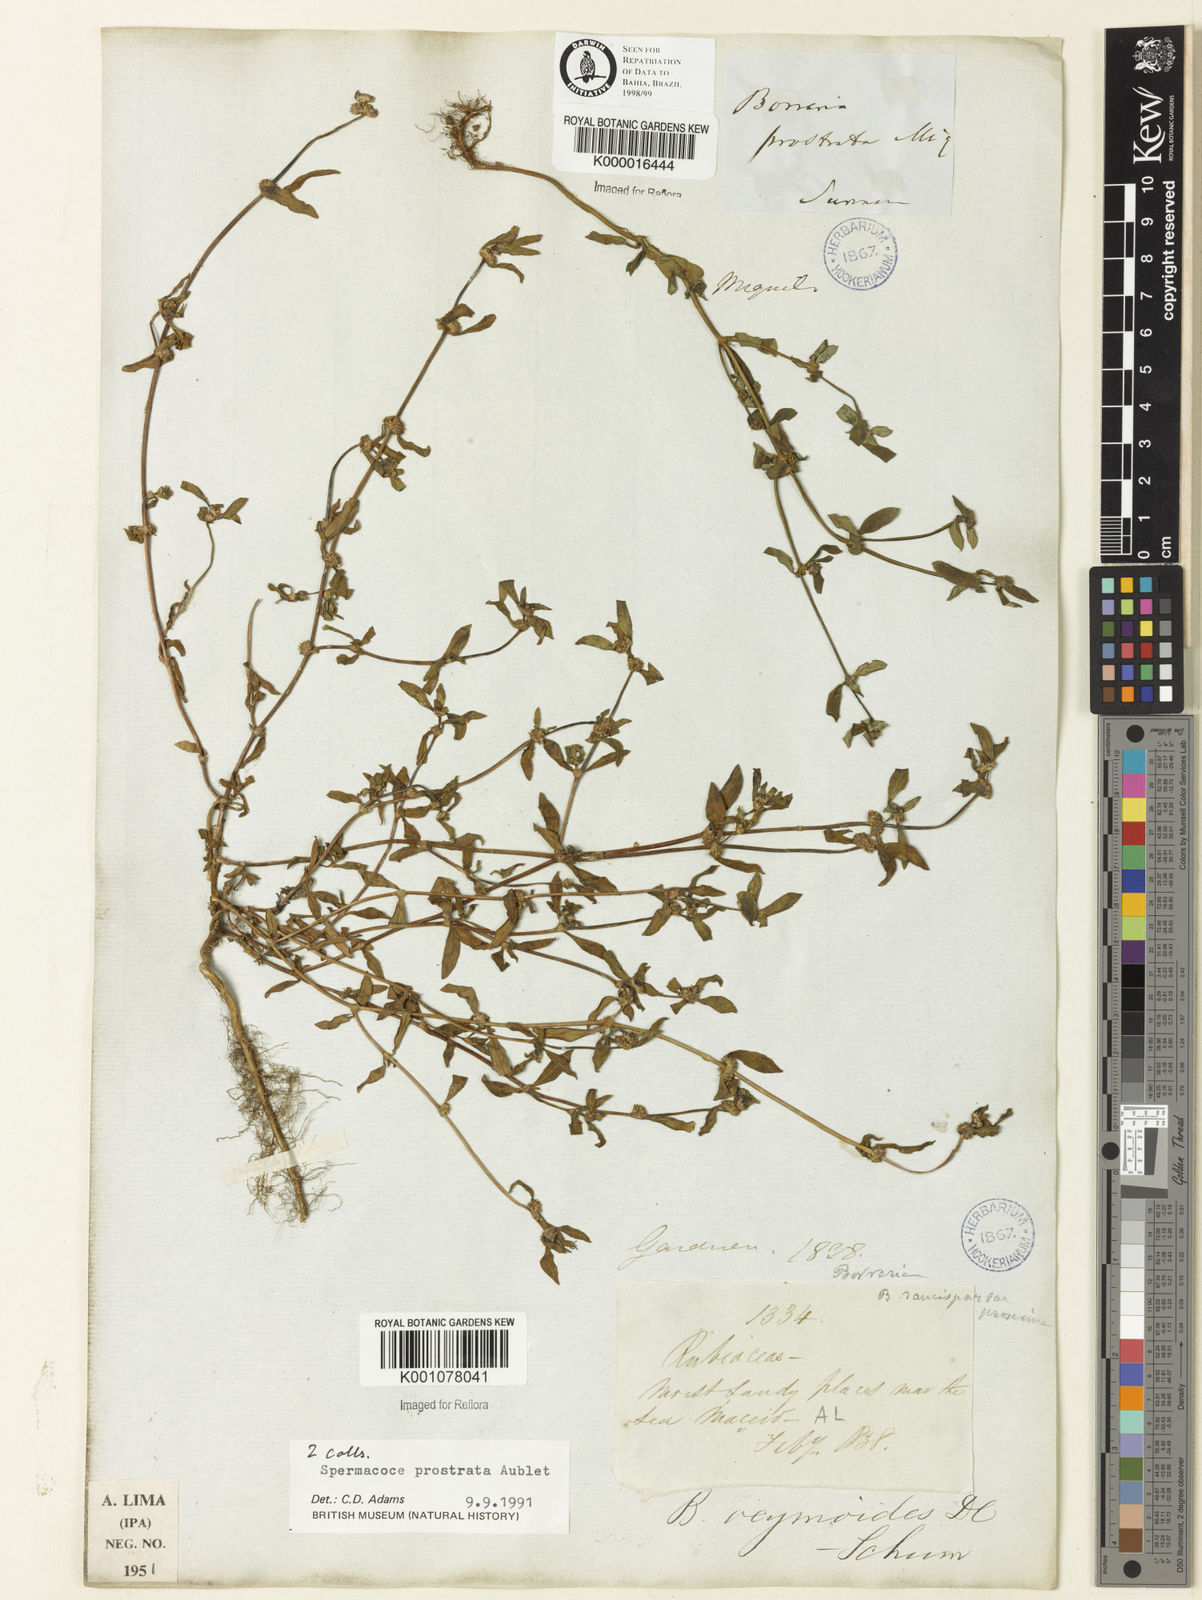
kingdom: Plantae
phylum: Tracheophyta
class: Magnoliopsida
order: Gentianales
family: Rubiaceae
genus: Spermacoce
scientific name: Spermacoce prostrata
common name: Prostrate false buttonweed
